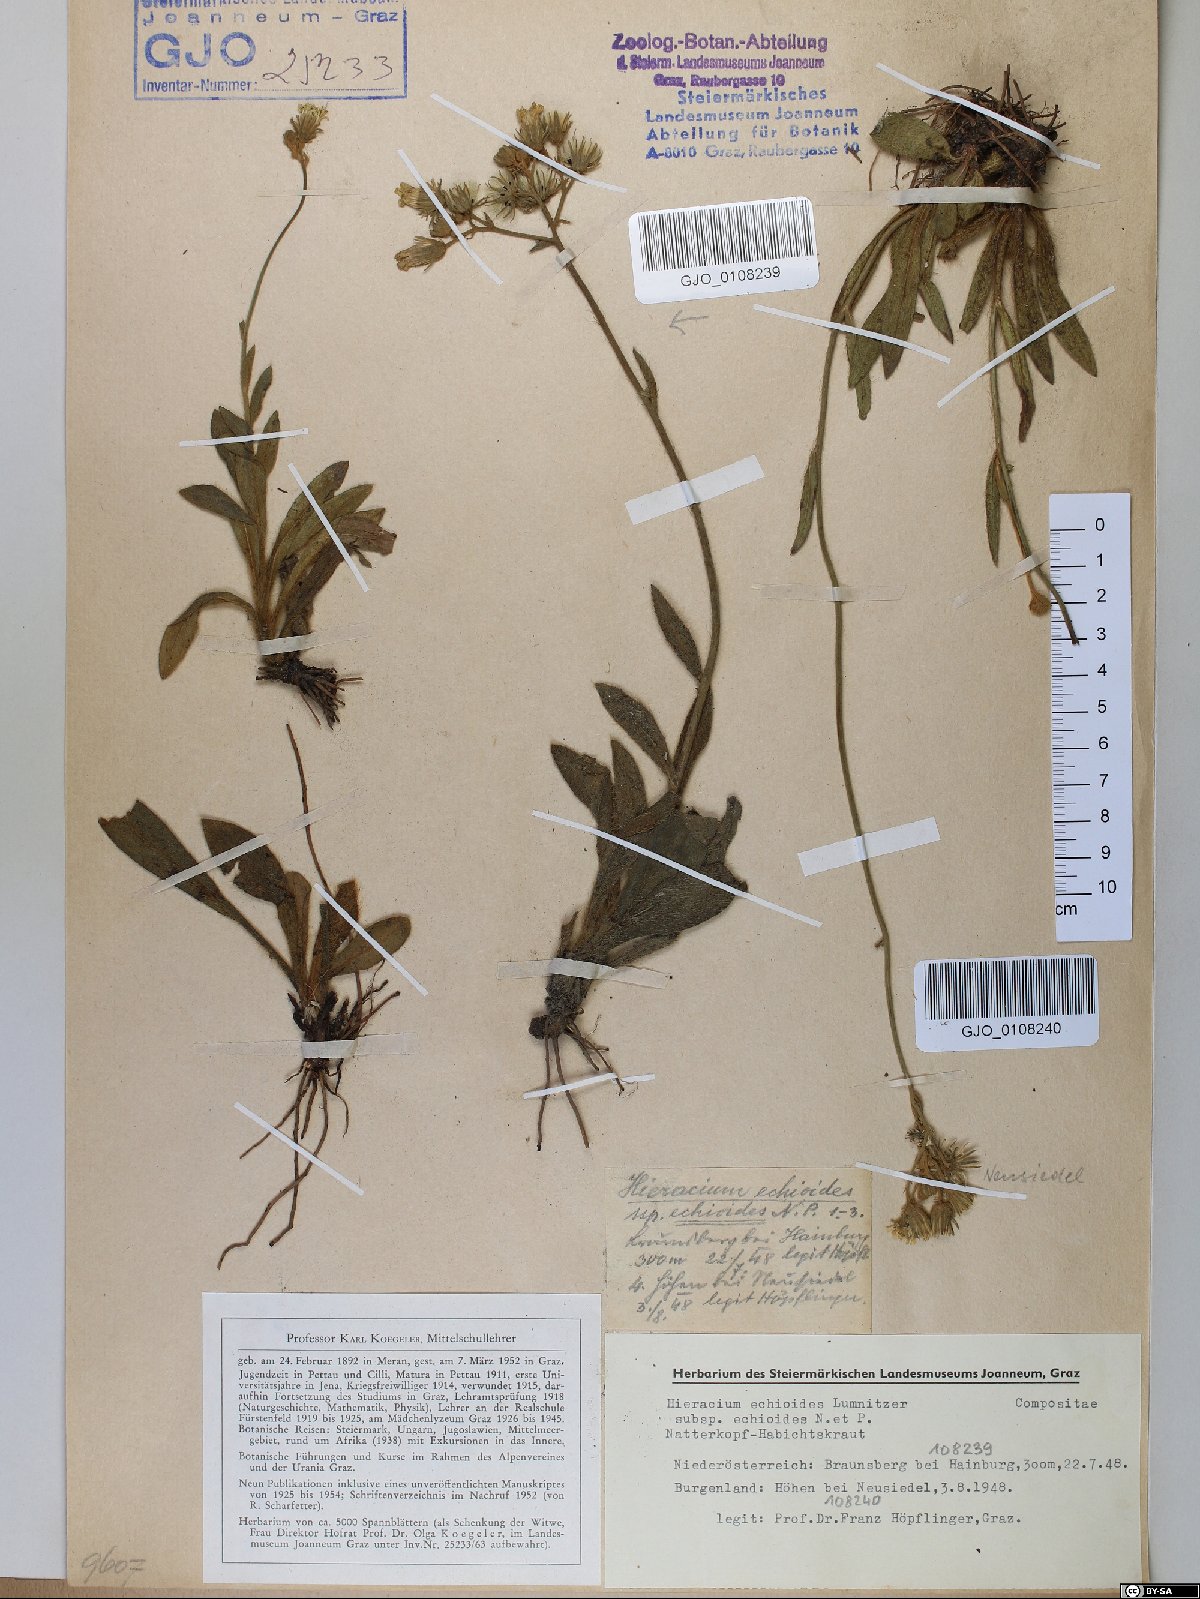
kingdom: Plantae
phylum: Tracheophyta
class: Magnoliopsida
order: Asterales
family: Asteraceae
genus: Pilosella
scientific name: Pilosella echioides
